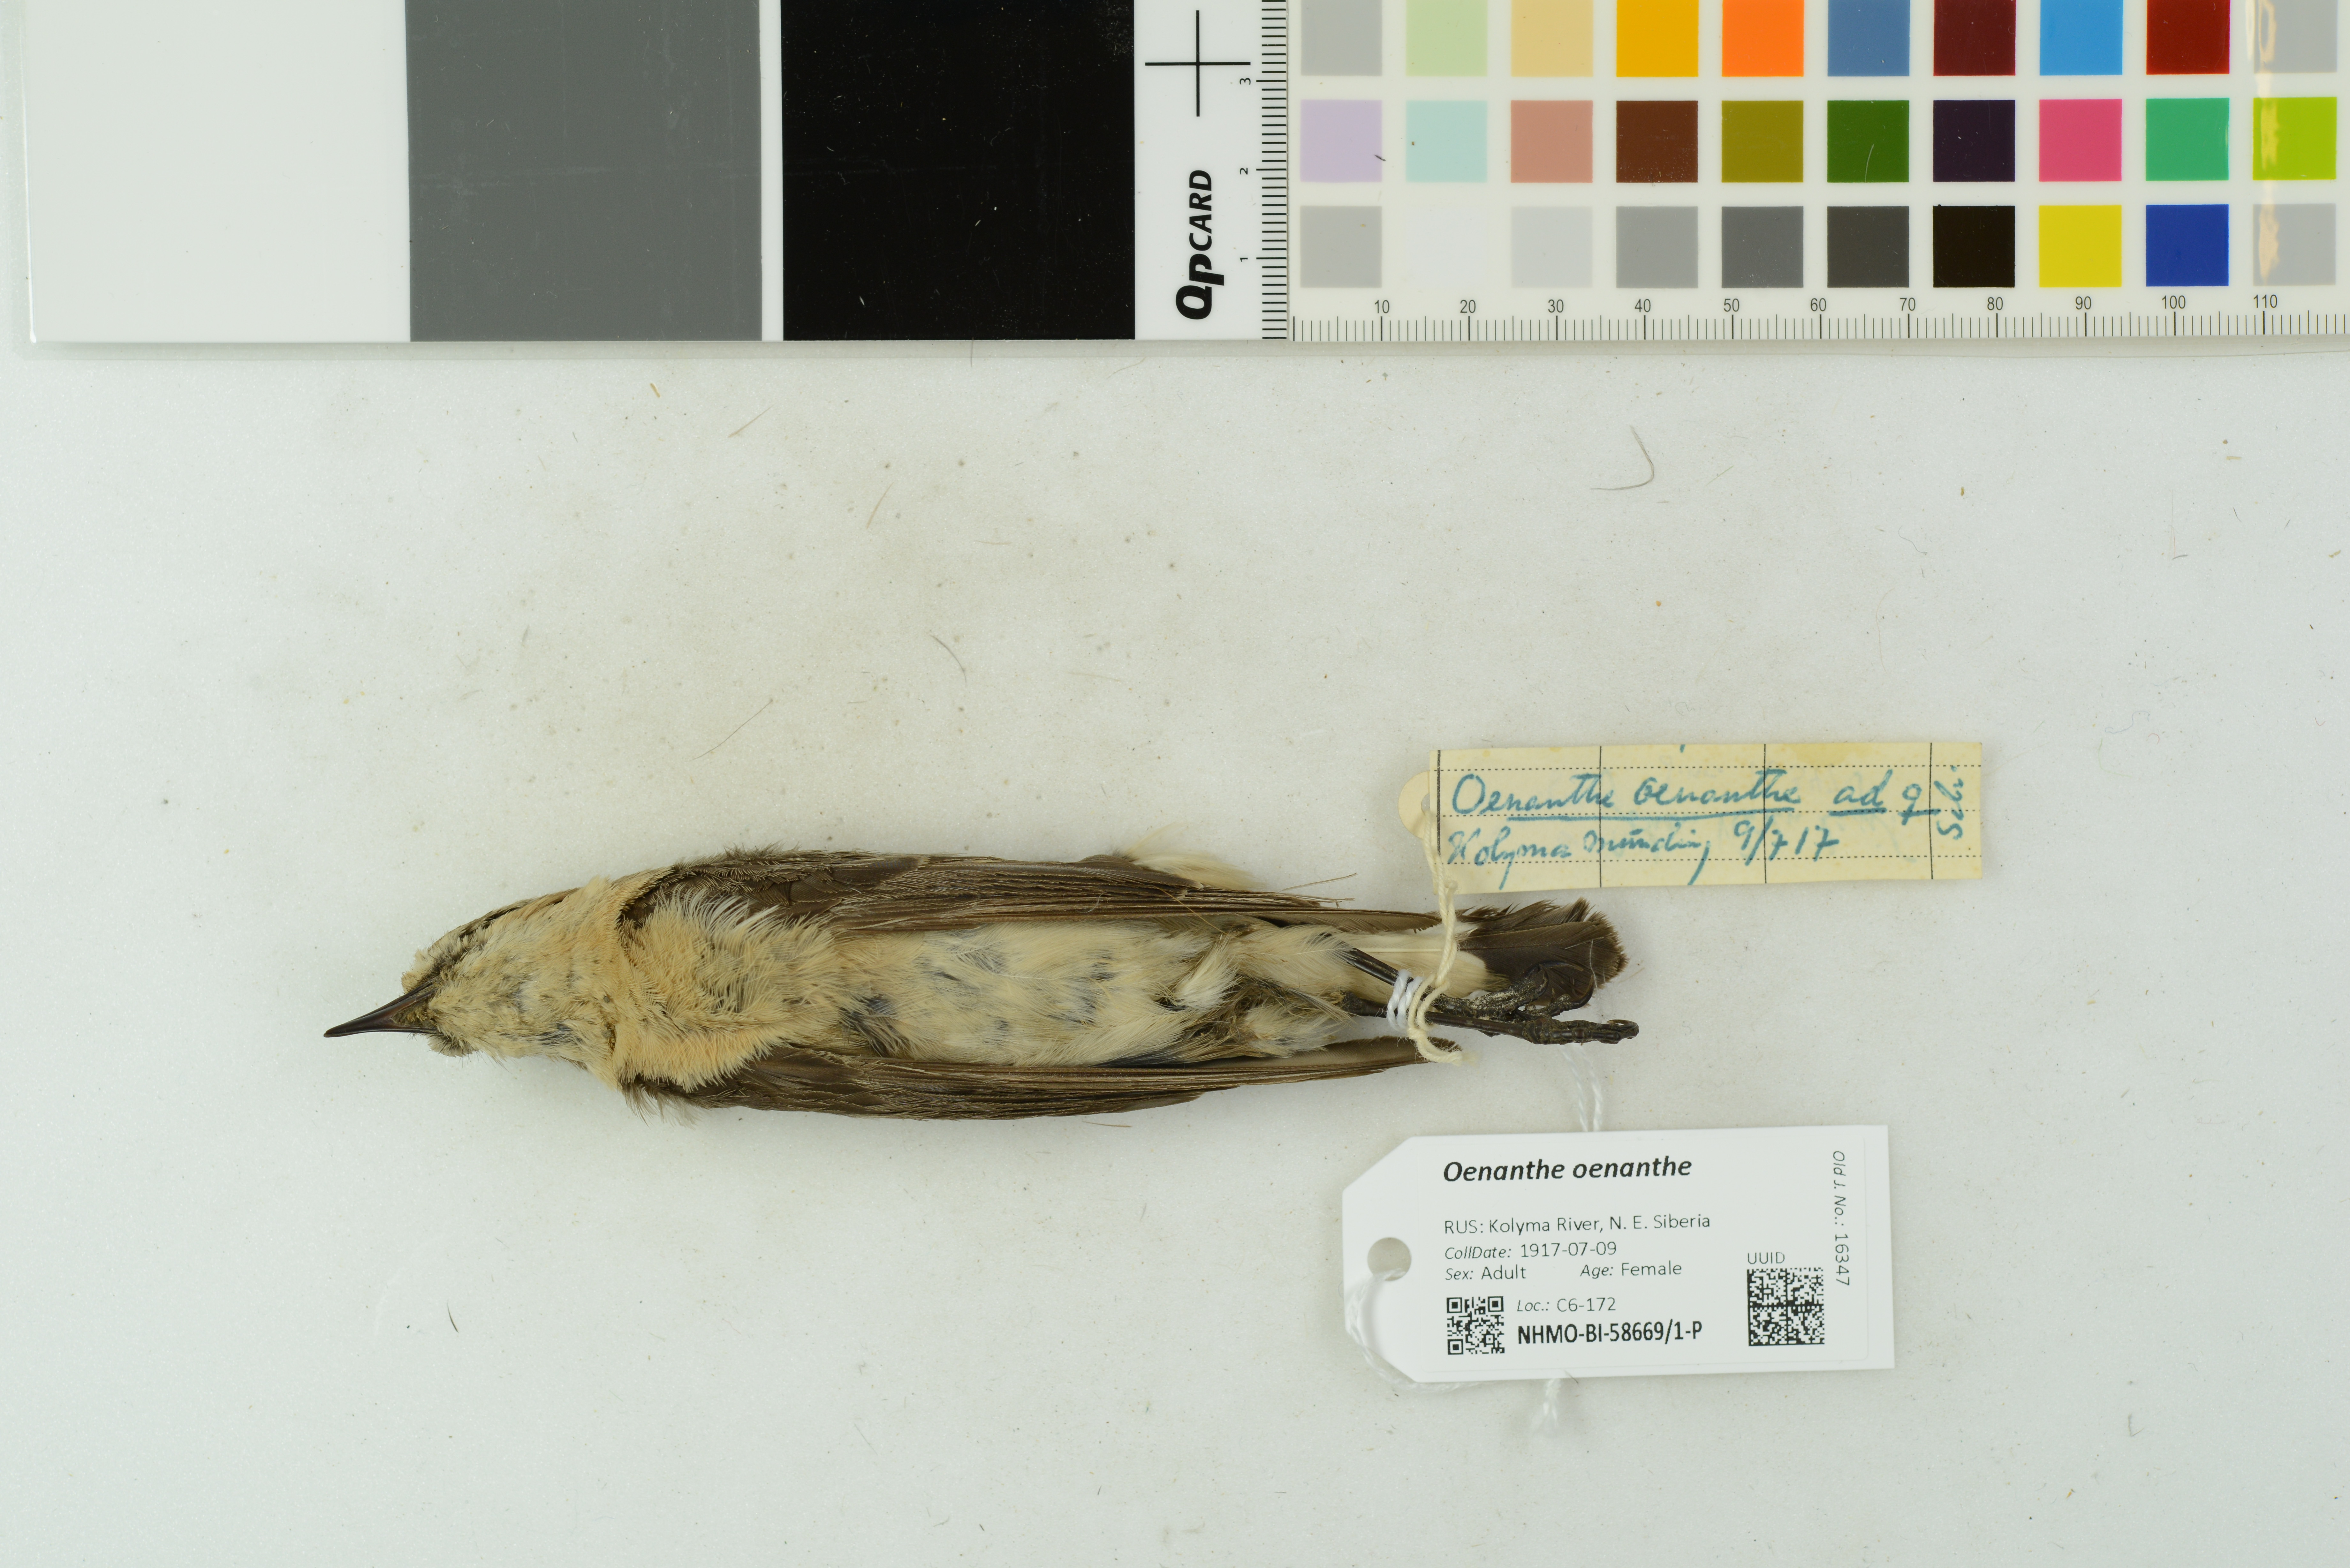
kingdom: Animalia
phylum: Chordata
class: Aves
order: Passeriformes
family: Muscicapidae
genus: Oenanthe
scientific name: Oenanthe oenanthe
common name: Northern wheatear
